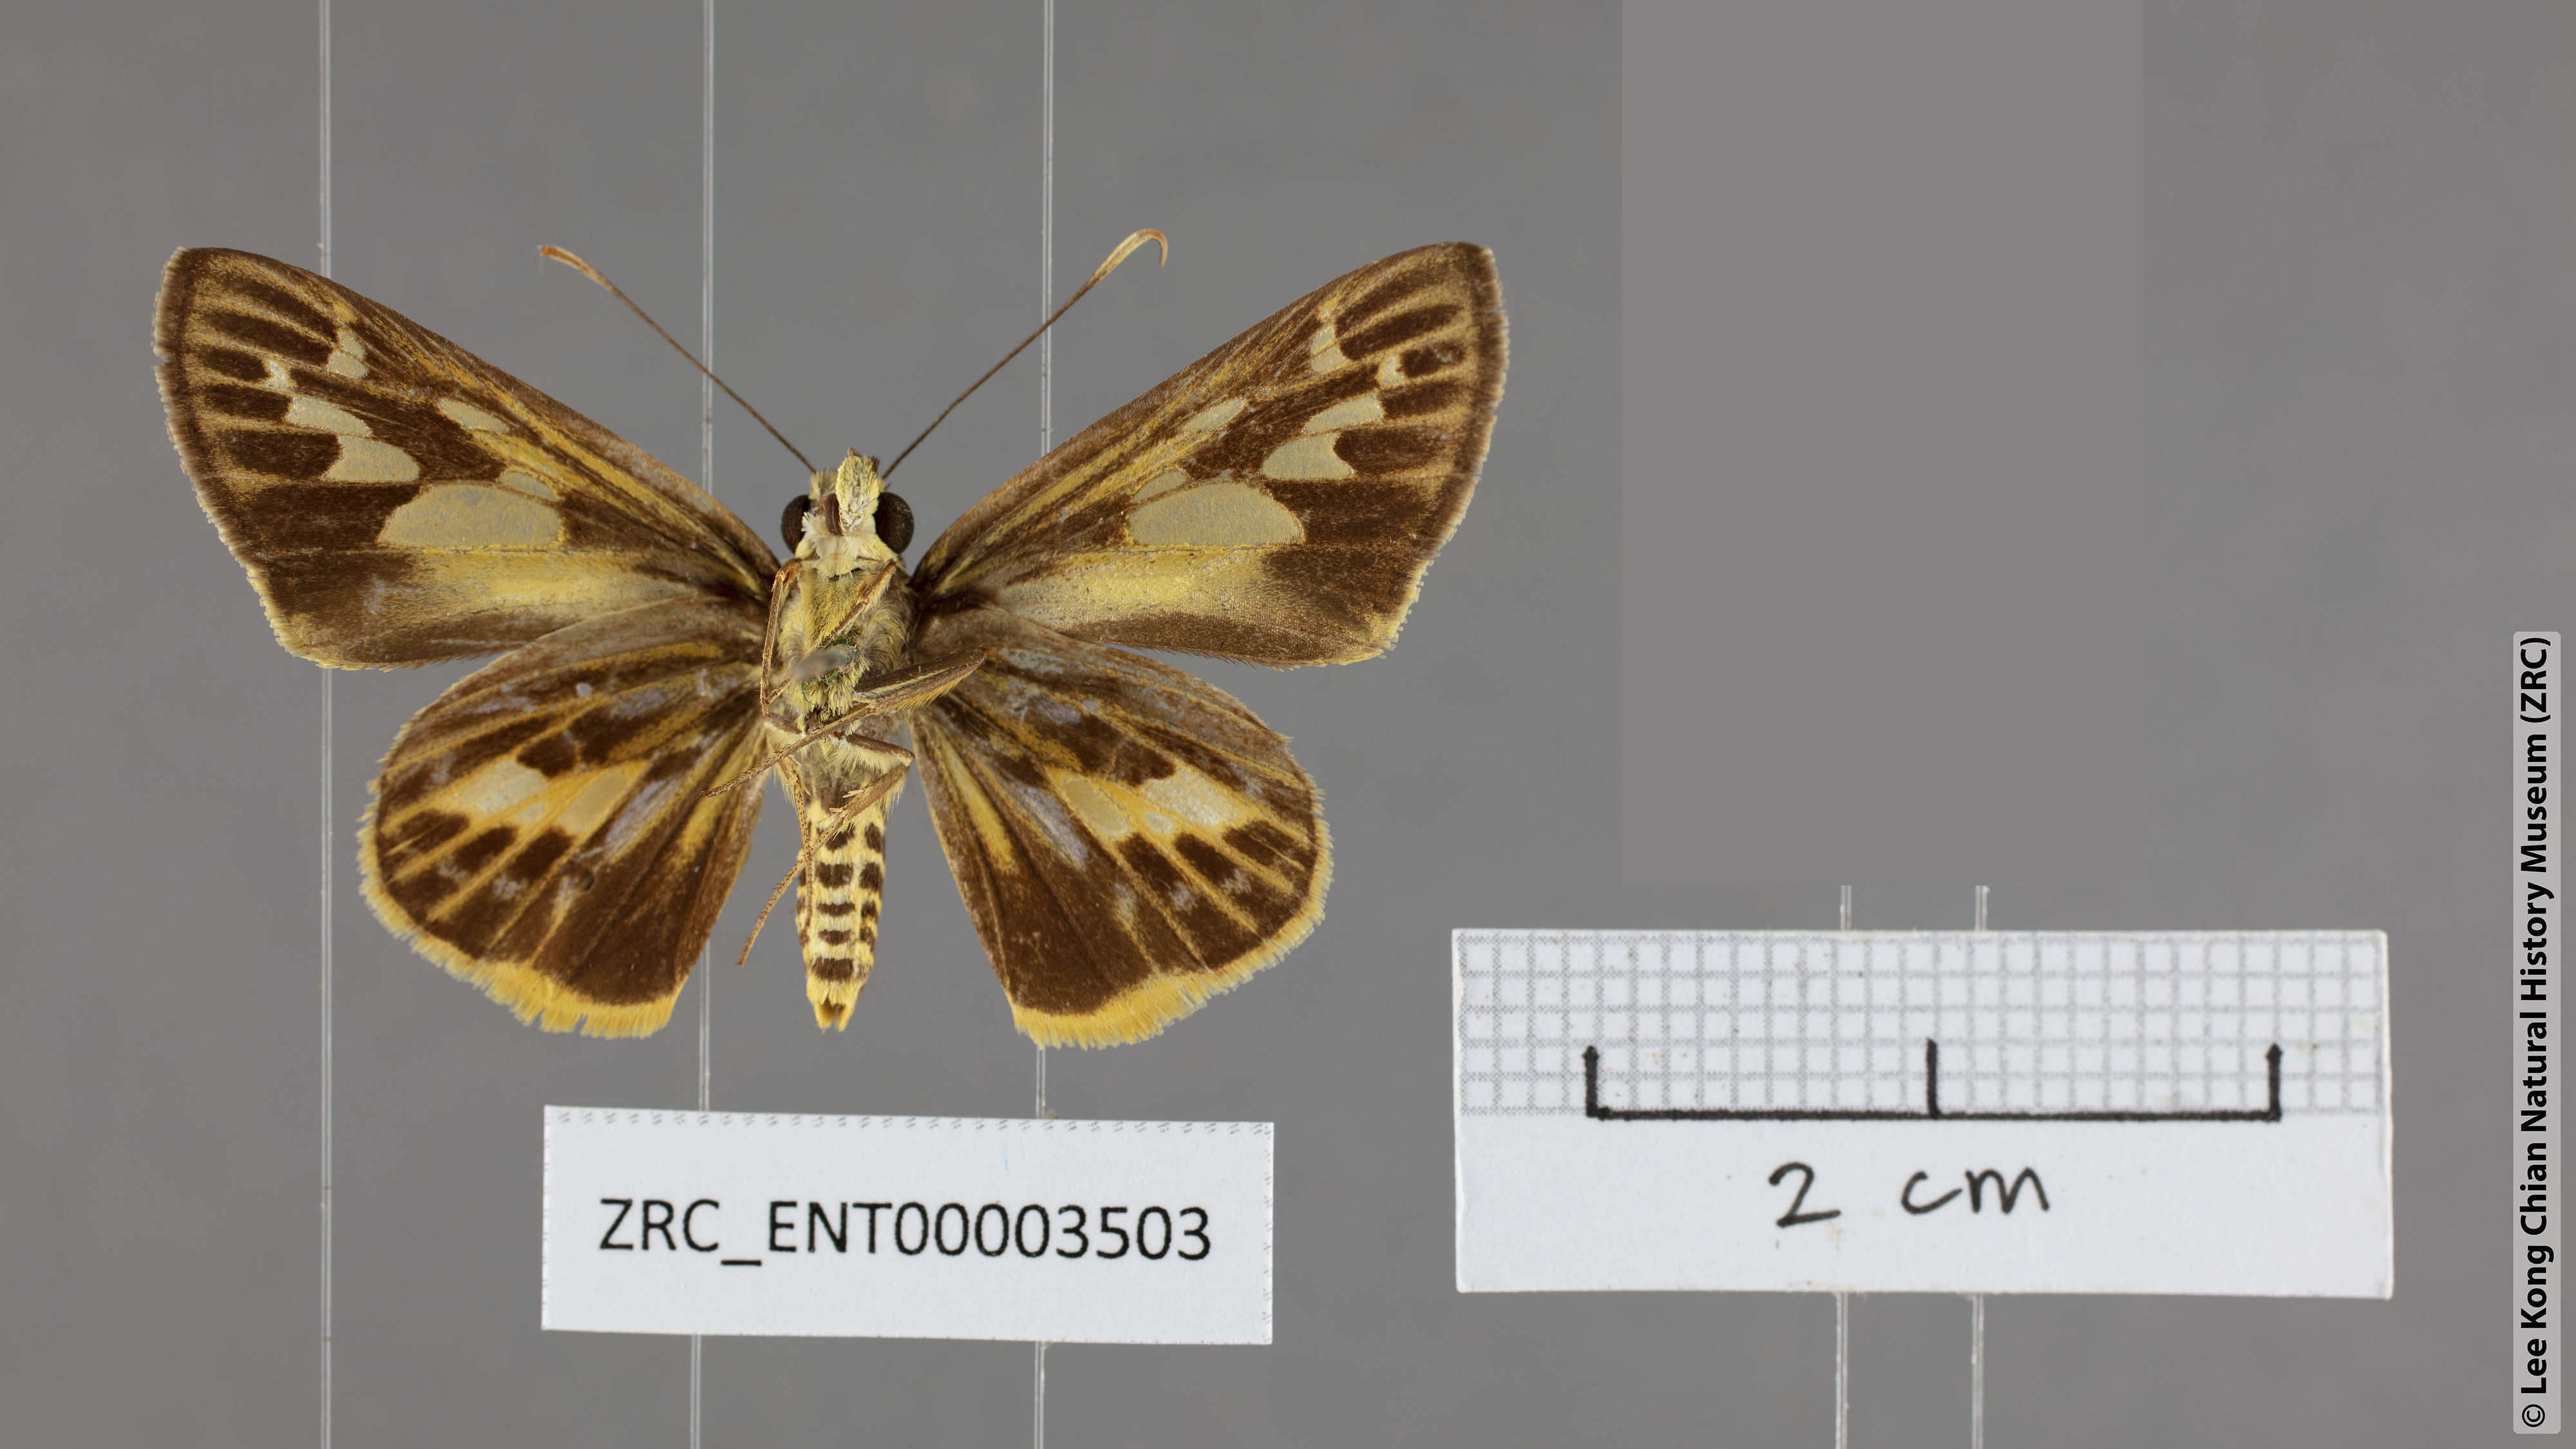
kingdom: Animalia
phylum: Arthropoda
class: Insecta
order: Lepidoptera
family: Hesperiidae
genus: Pyroneura
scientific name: Pyroneura derna
